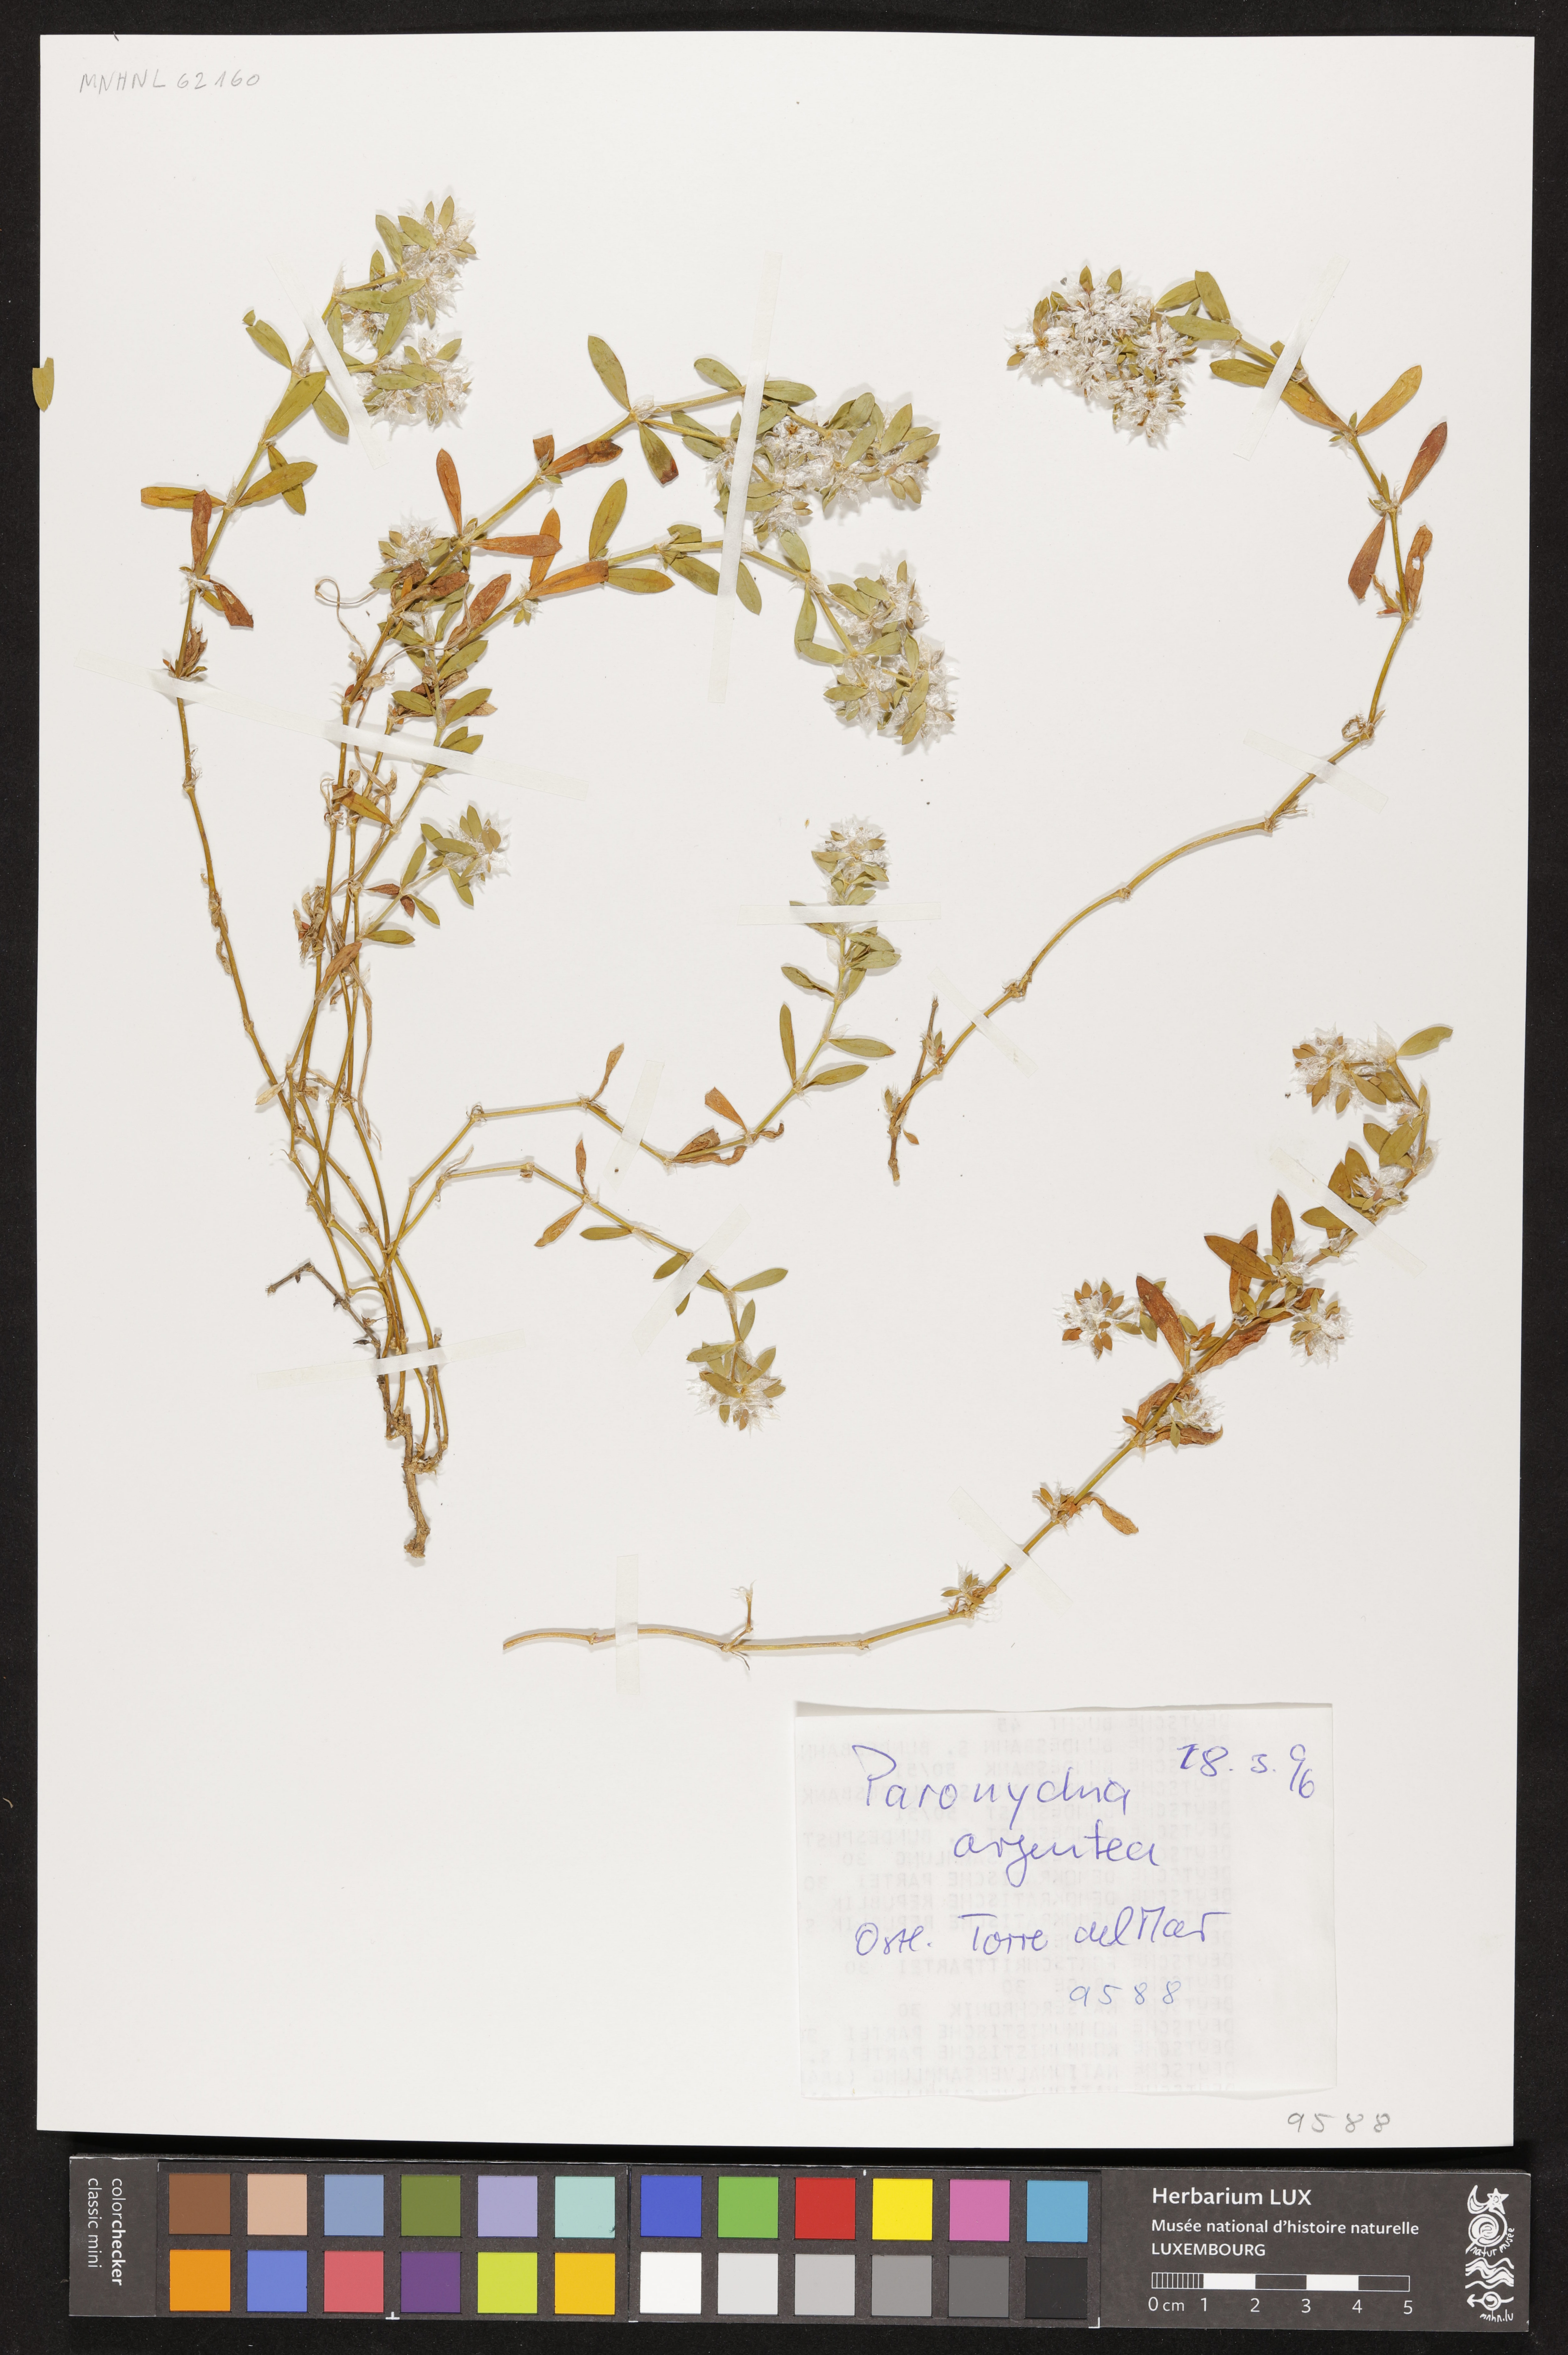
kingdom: Plantae
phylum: Tracheophyta
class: Magnoliopsida
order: Caryophyllales
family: Caryophyllaceae
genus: Paronychia
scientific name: Paronychia argentea
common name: Silver nailroot
